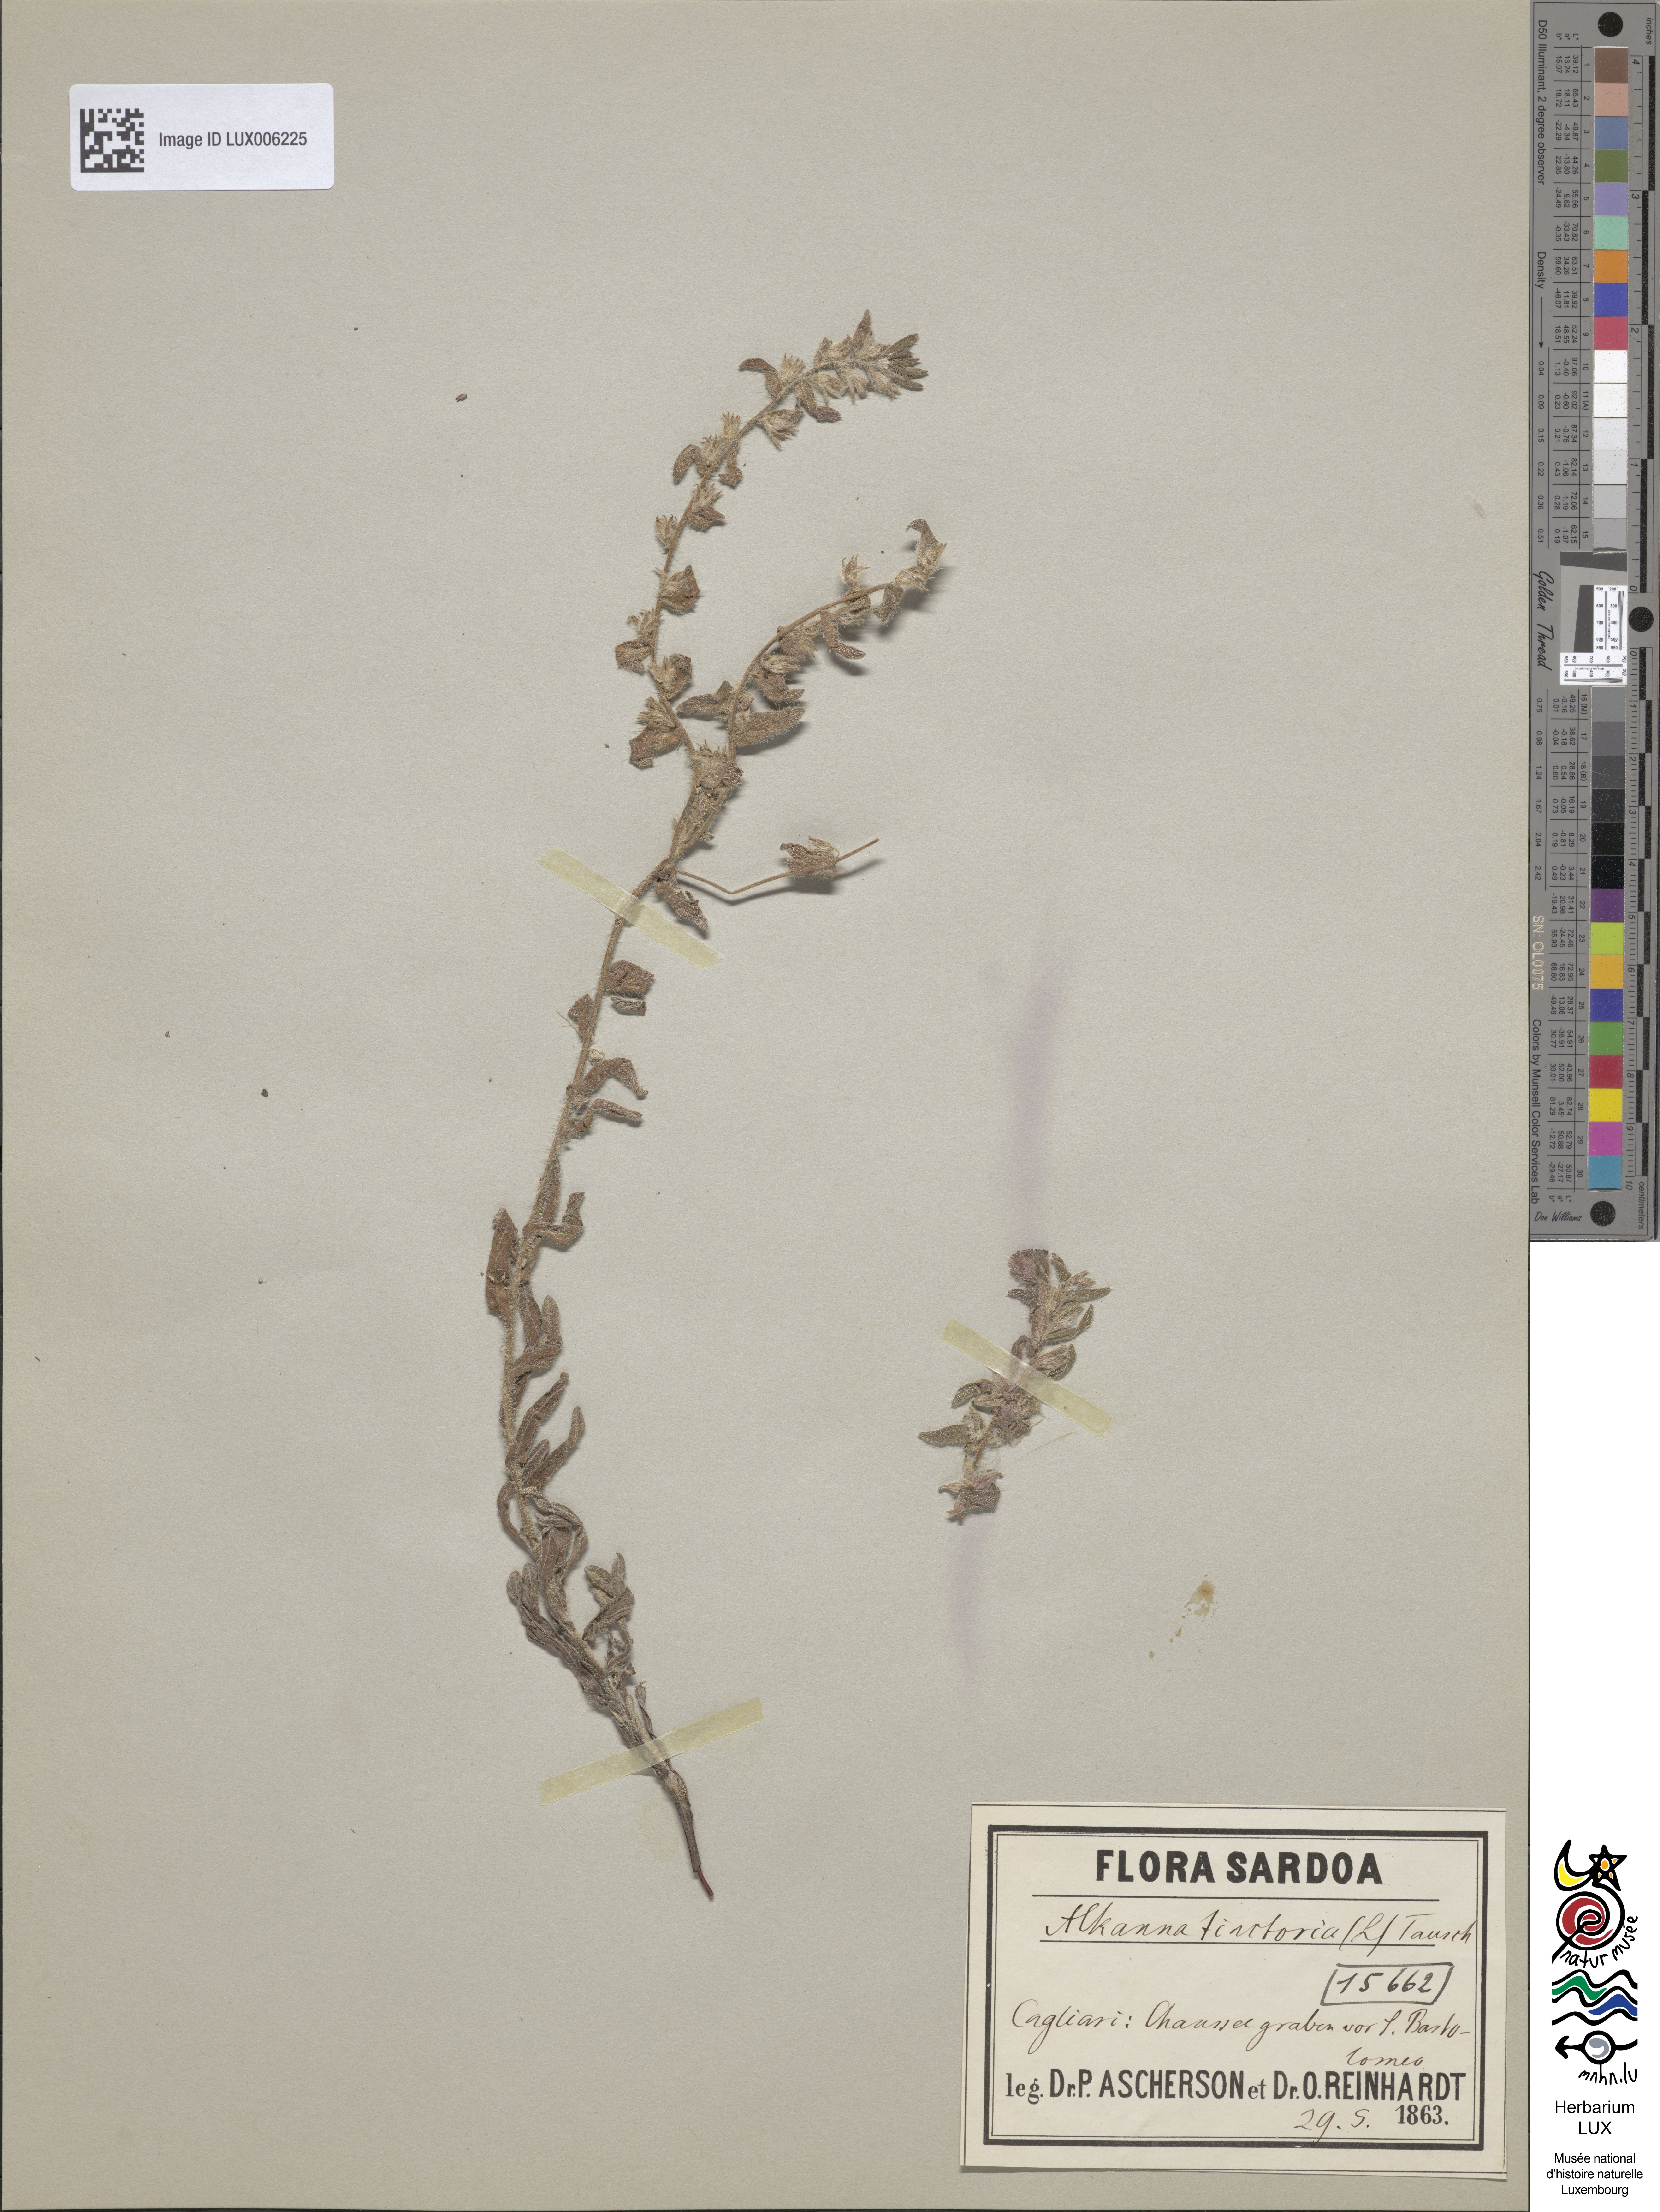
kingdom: Plantae
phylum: Tracheophyta
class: Magnoliopsida
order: Boraginales
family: Boraginaceae
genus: Alkanna
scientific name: Alkanna tinctoria
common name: Dyer's-alkanet
